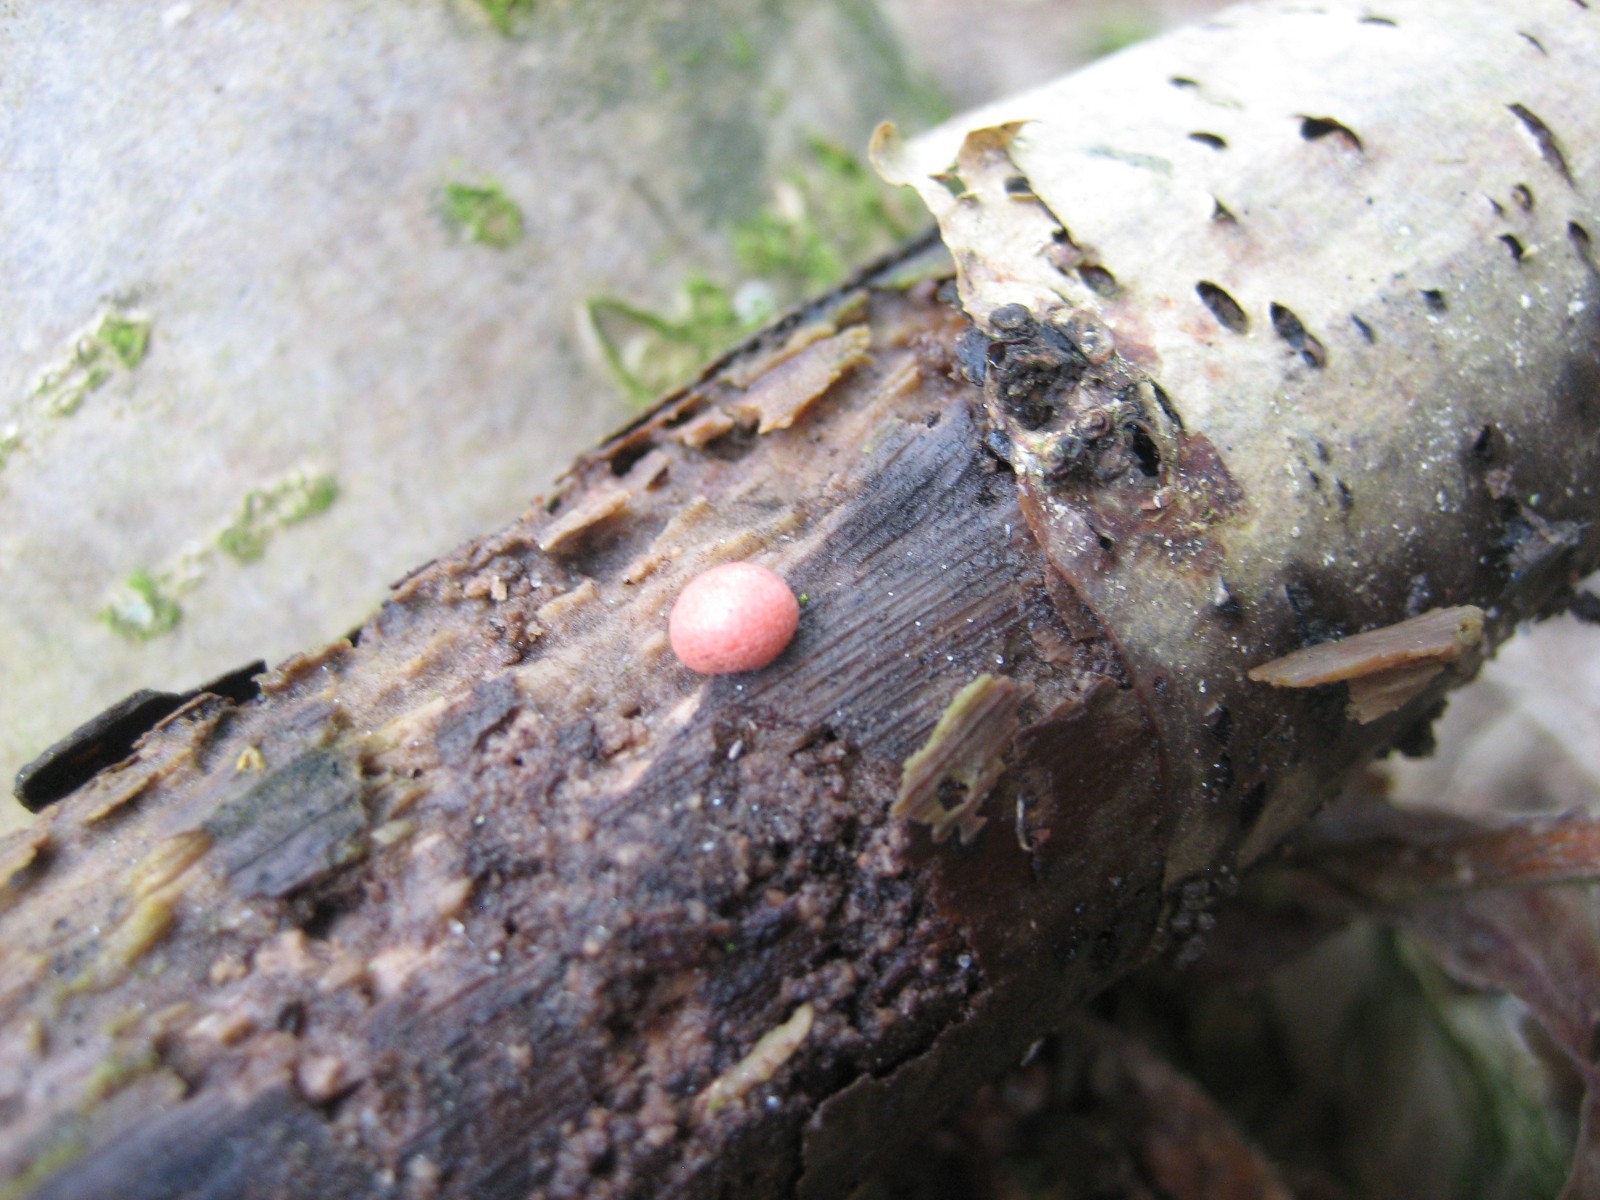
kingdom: Protozoa
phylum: Mycetozoa
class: Myxomycetes
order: Cribrariales
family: Tubiferaceae
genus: Lycogala
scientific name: Lycogala epidendrum
